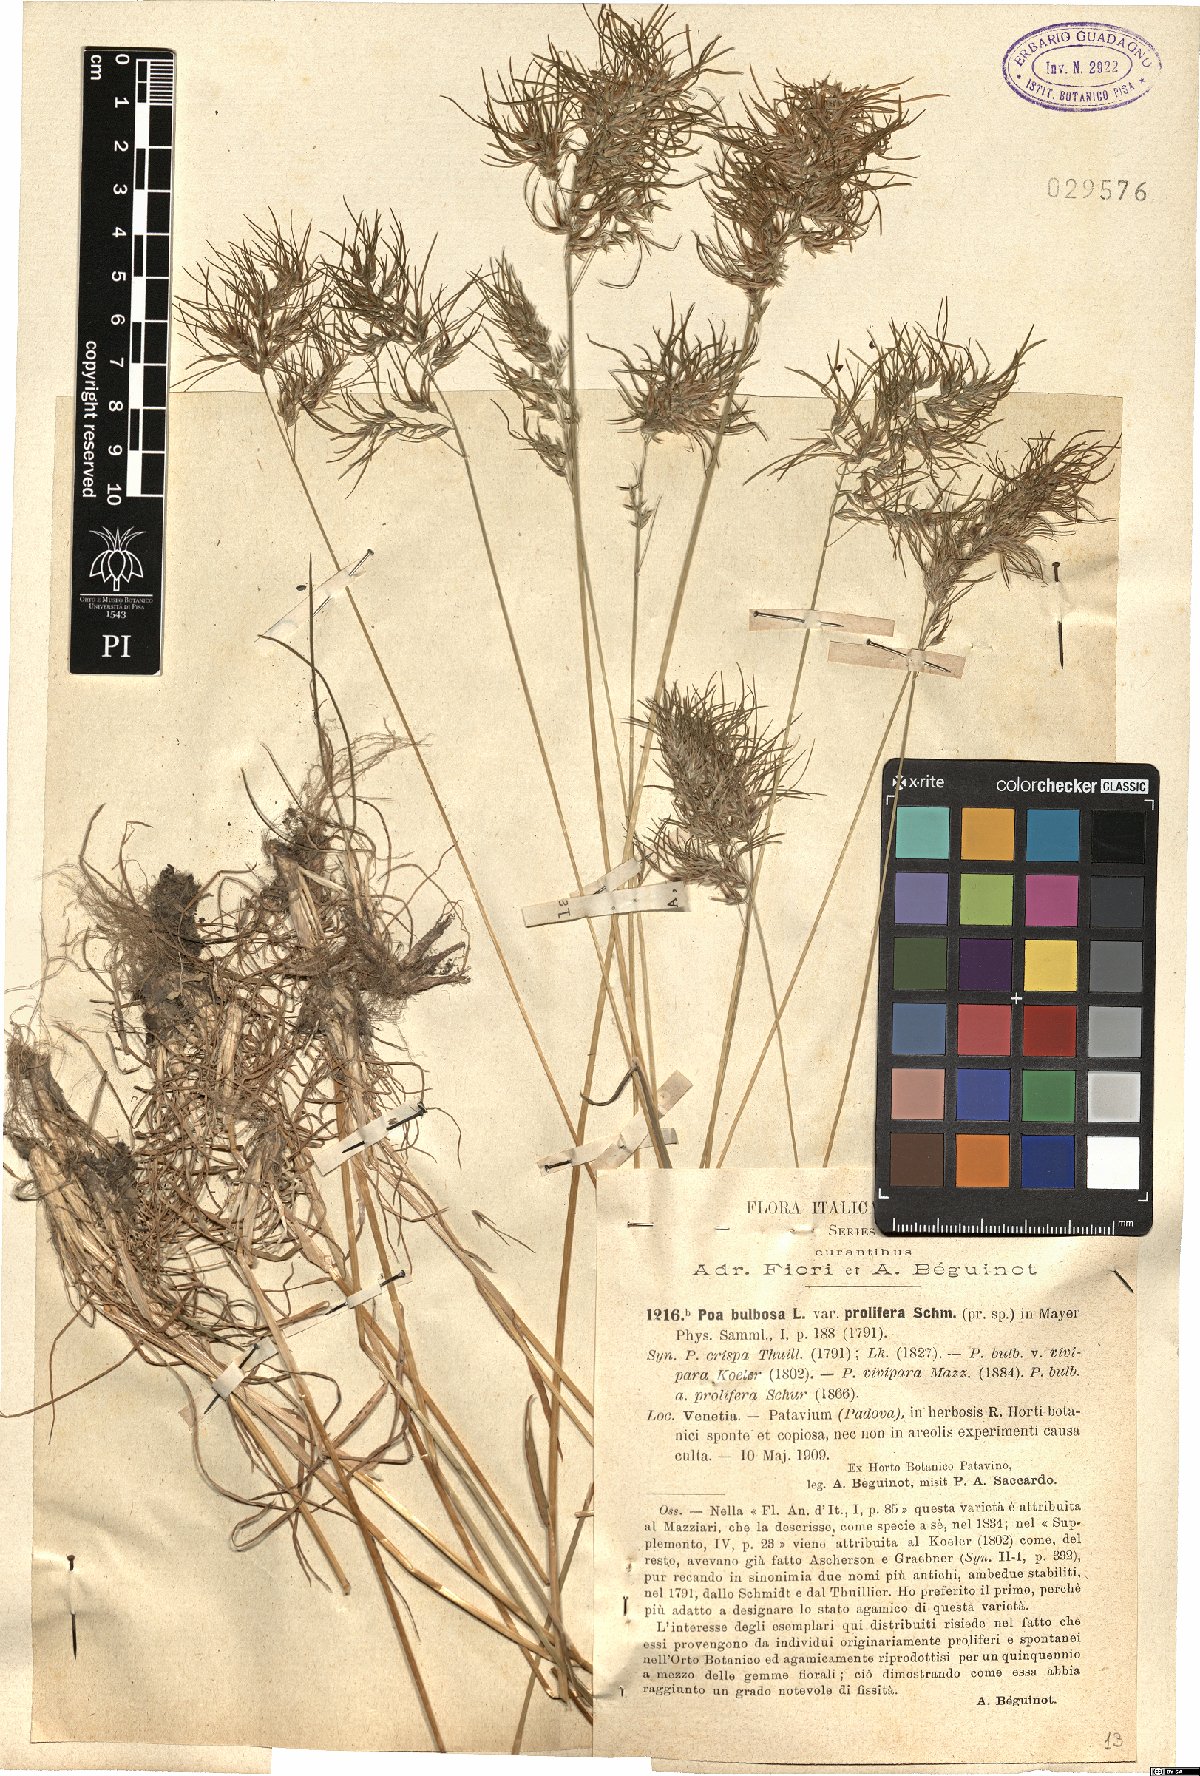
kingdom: Plantae
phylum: Tracheophyta
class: Liliopsida
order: Poales
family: Poaceae
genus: Poa
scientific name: Poa bulbosa
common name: Bulbous bluegrass
